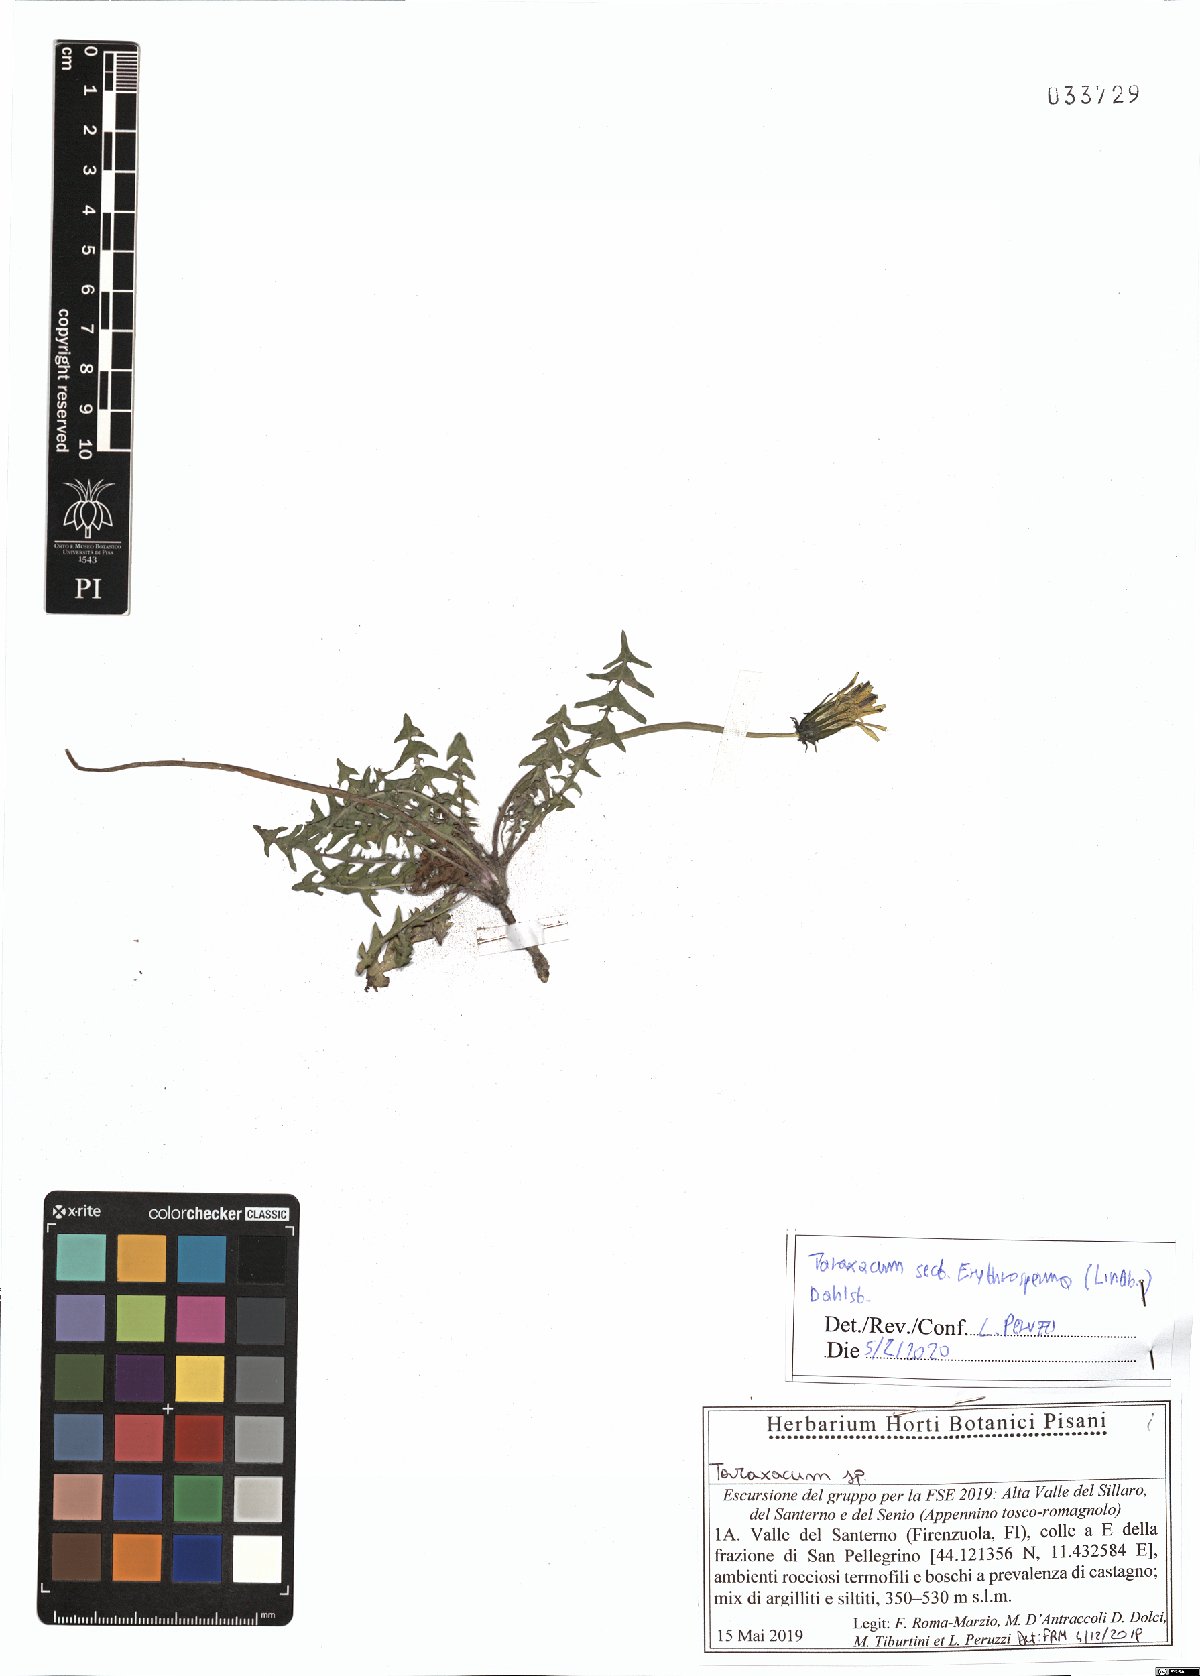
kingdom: Plantae
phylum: Tracheophyta
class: Magnoliopsida
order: Asterales
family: Asteraceae
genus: Taraxacum
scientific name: Taraxacum erythrospermum
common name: Rock dandelion
